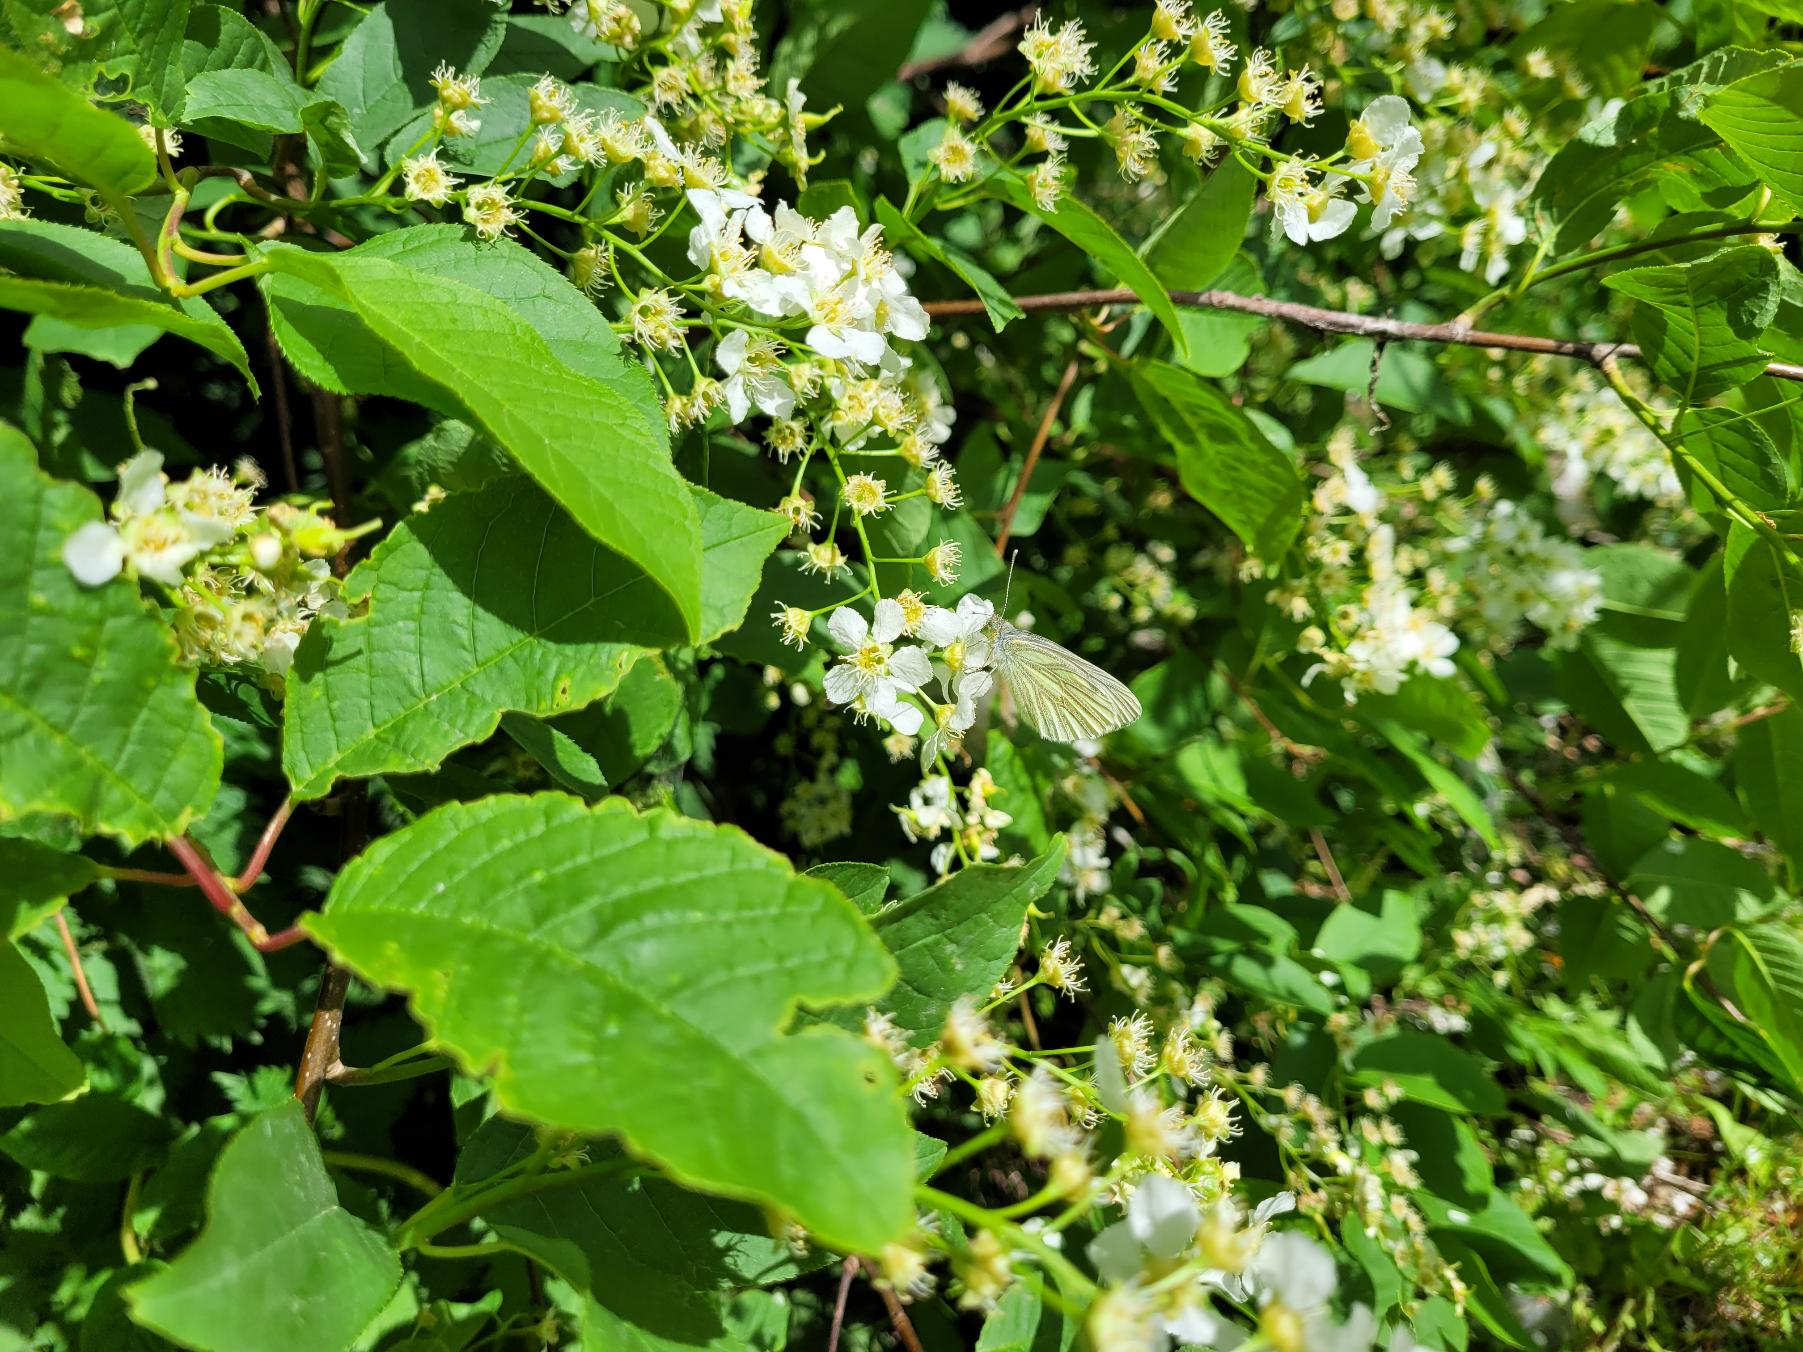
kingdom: Animalia
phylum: Arthropoda
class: Insecta
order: Lepidoptera
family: Pieridae
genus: Pieris
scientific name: Pieris napi
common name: Grønåret kålsommerfugl
